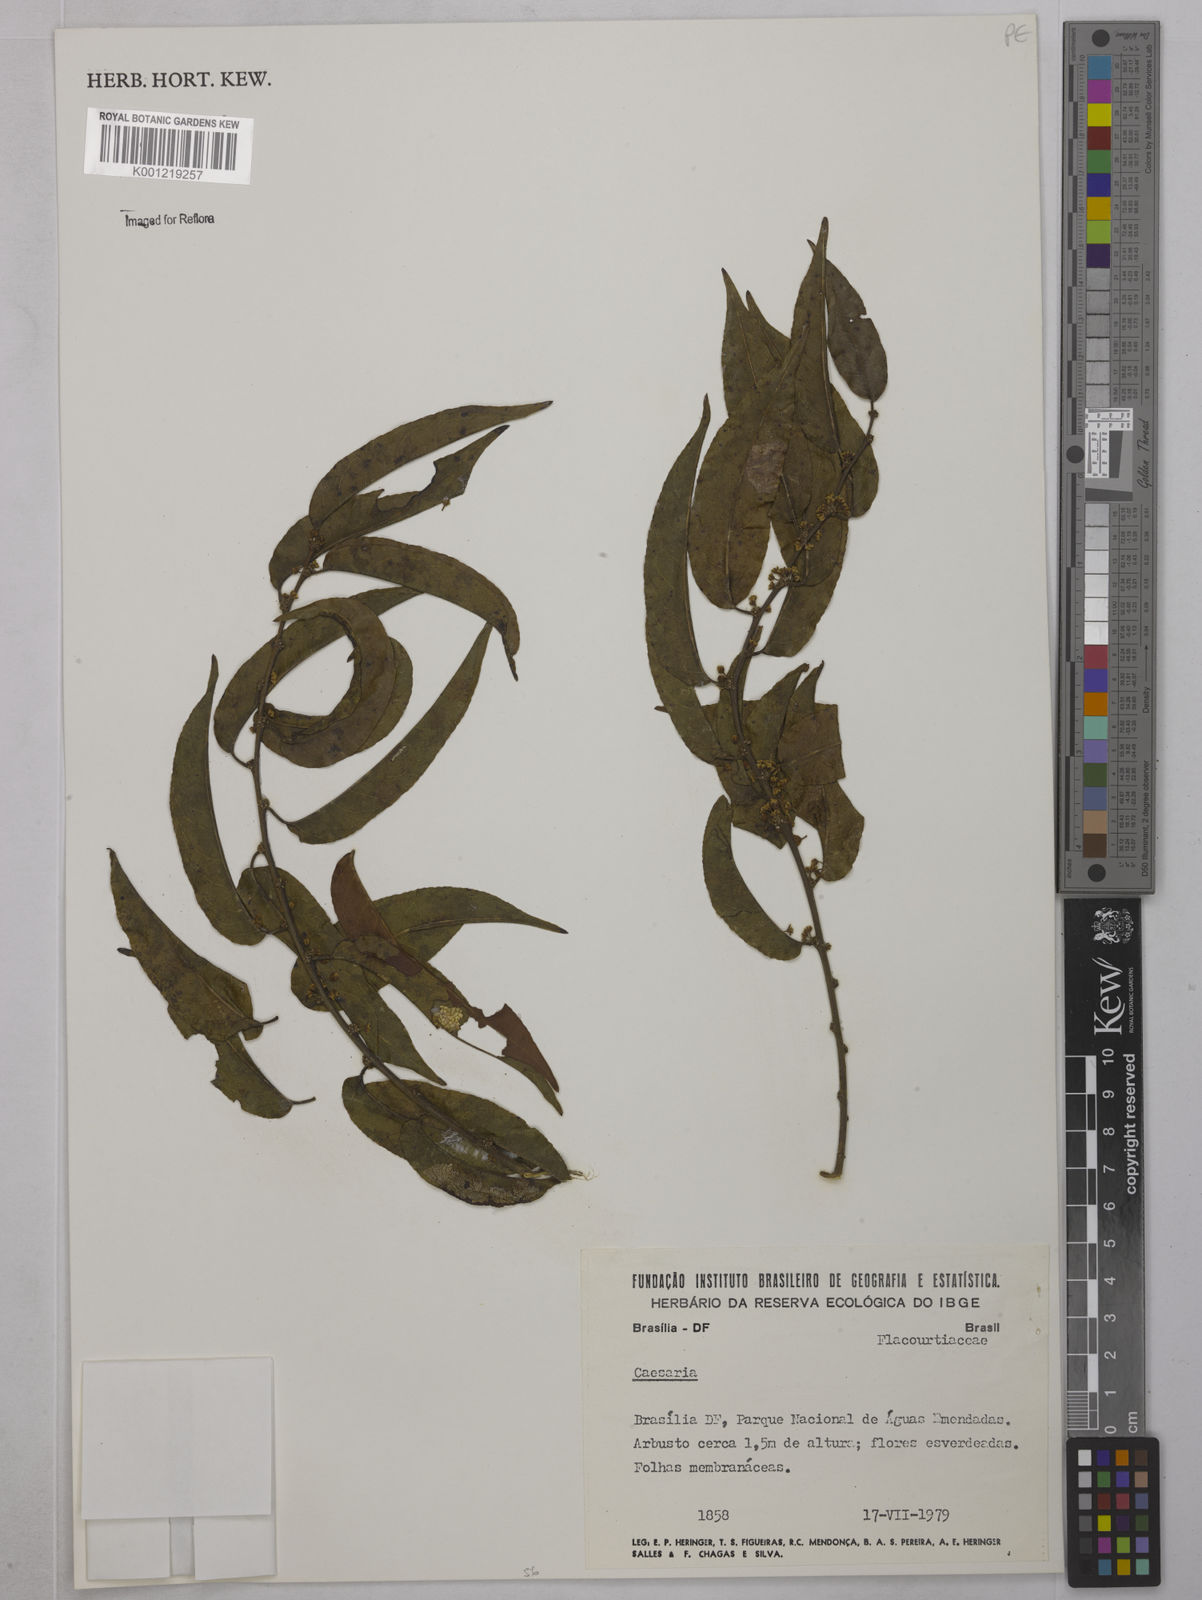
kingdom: Plantae
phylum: Tracheophyta
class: Magnoliopsida
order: Malpighiales
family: Salicaceae
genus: Casearia
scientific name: Casearia
